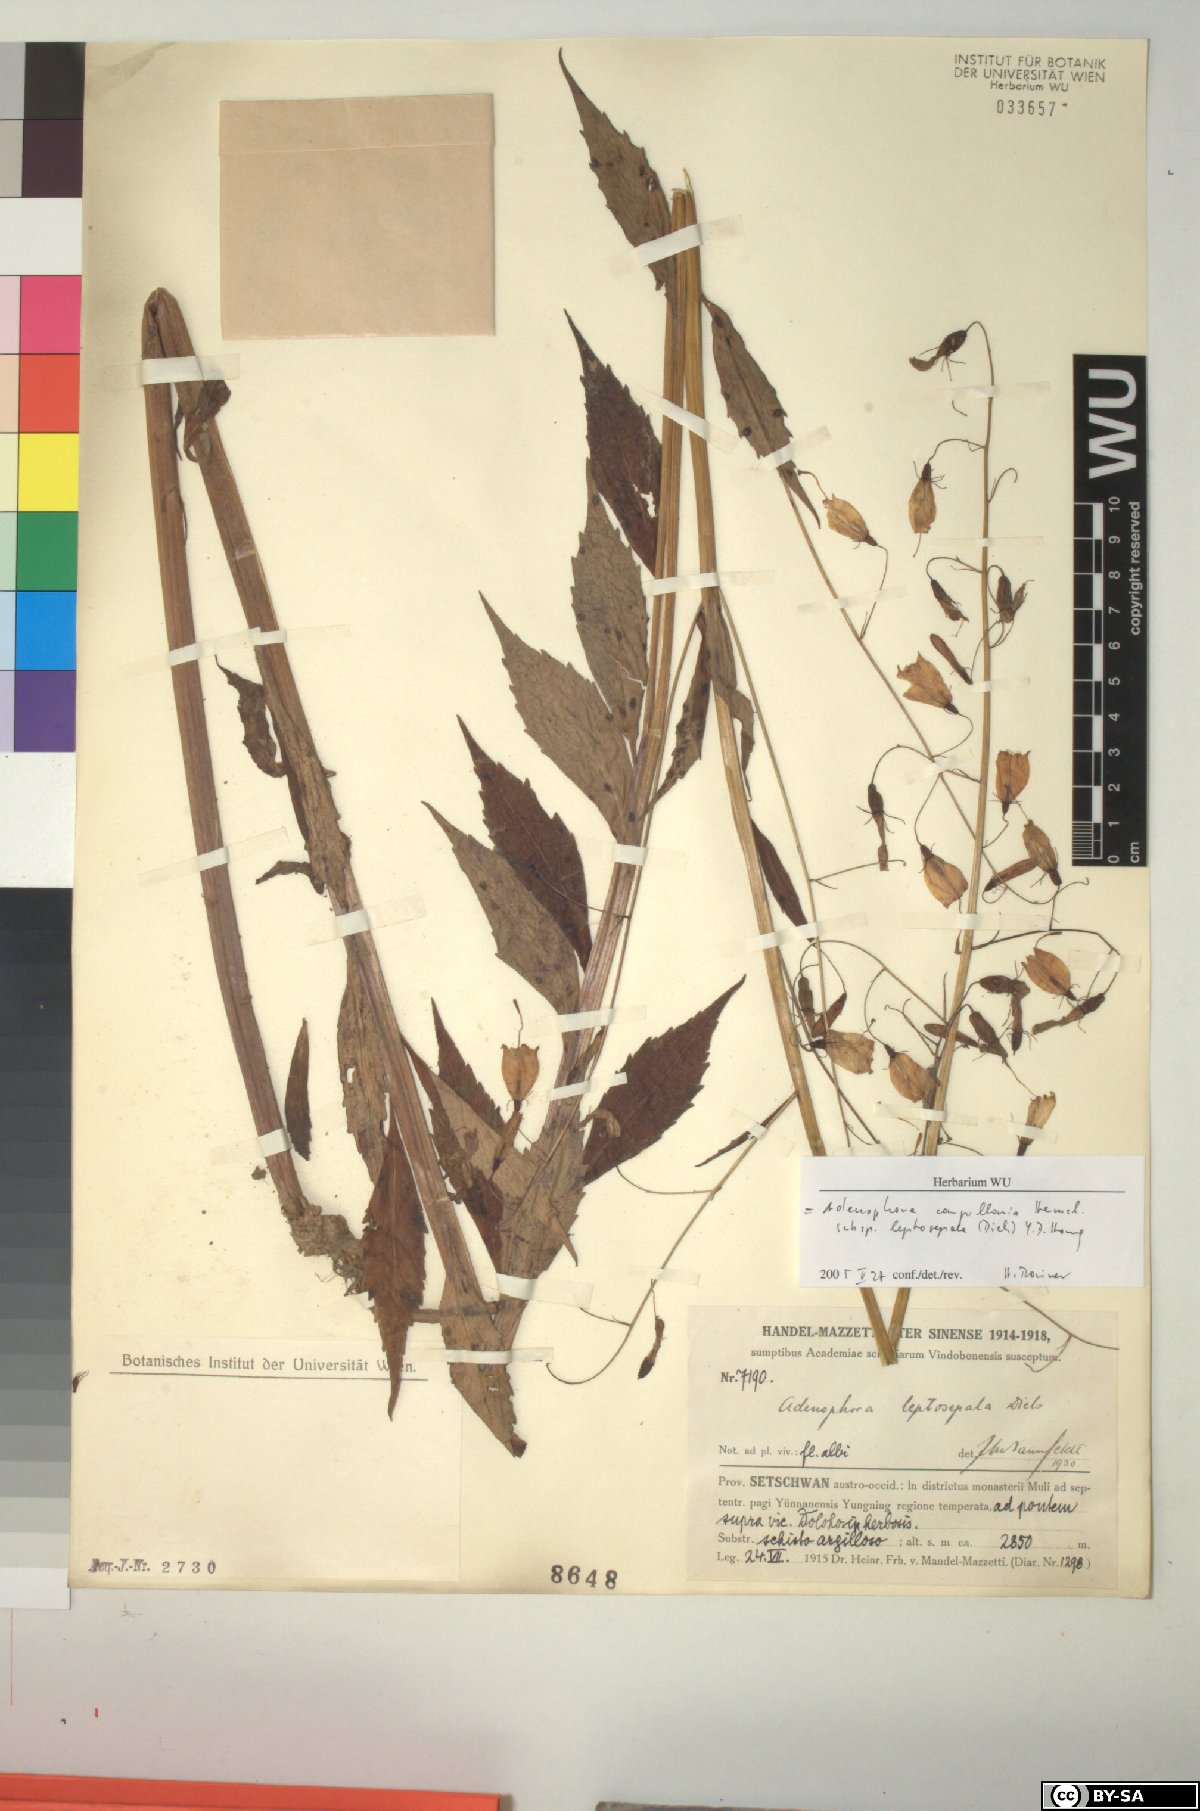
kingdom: Plantae
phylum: Tracheophyta
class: Magnoliopsida
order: Asterales
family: Campanulaceae
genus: Adenophora
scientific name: Adenophora capillaris
